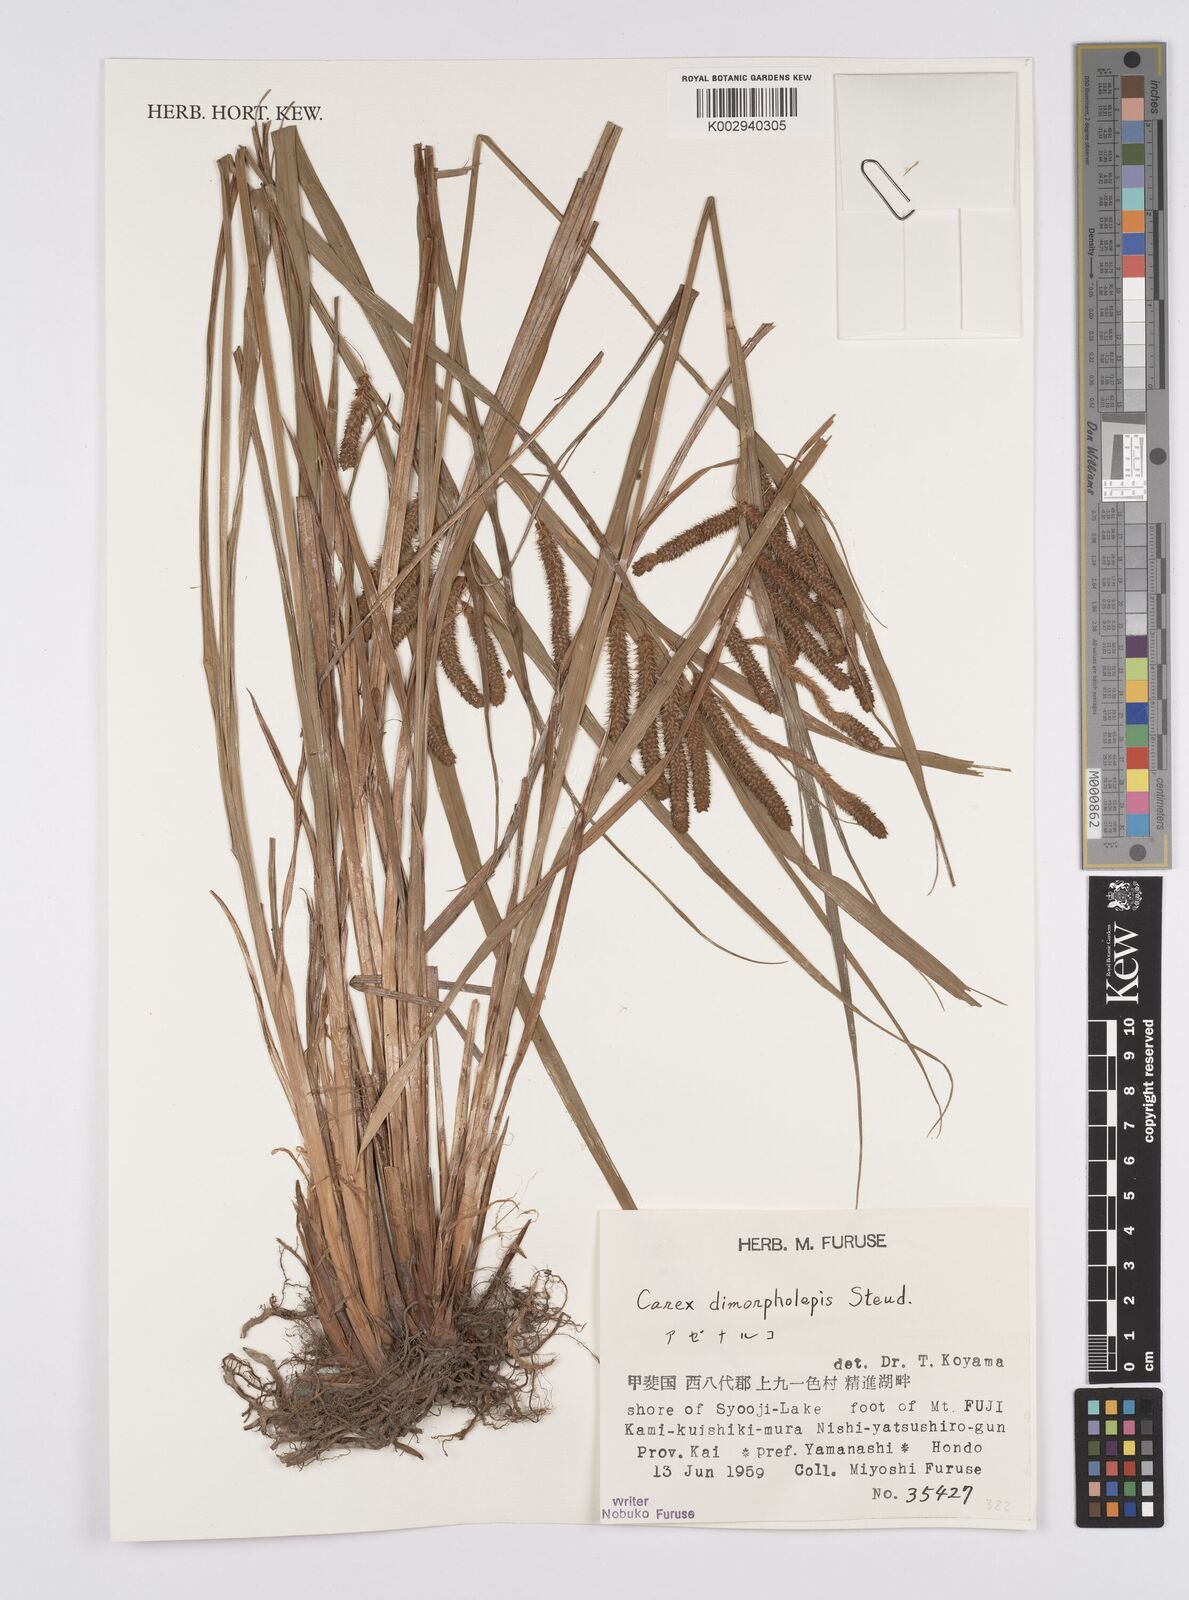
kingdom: Plantae
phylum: Tracheophyta
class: Liliopsida
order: Poales
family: Cyperaceae
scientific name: Cyperaceae
